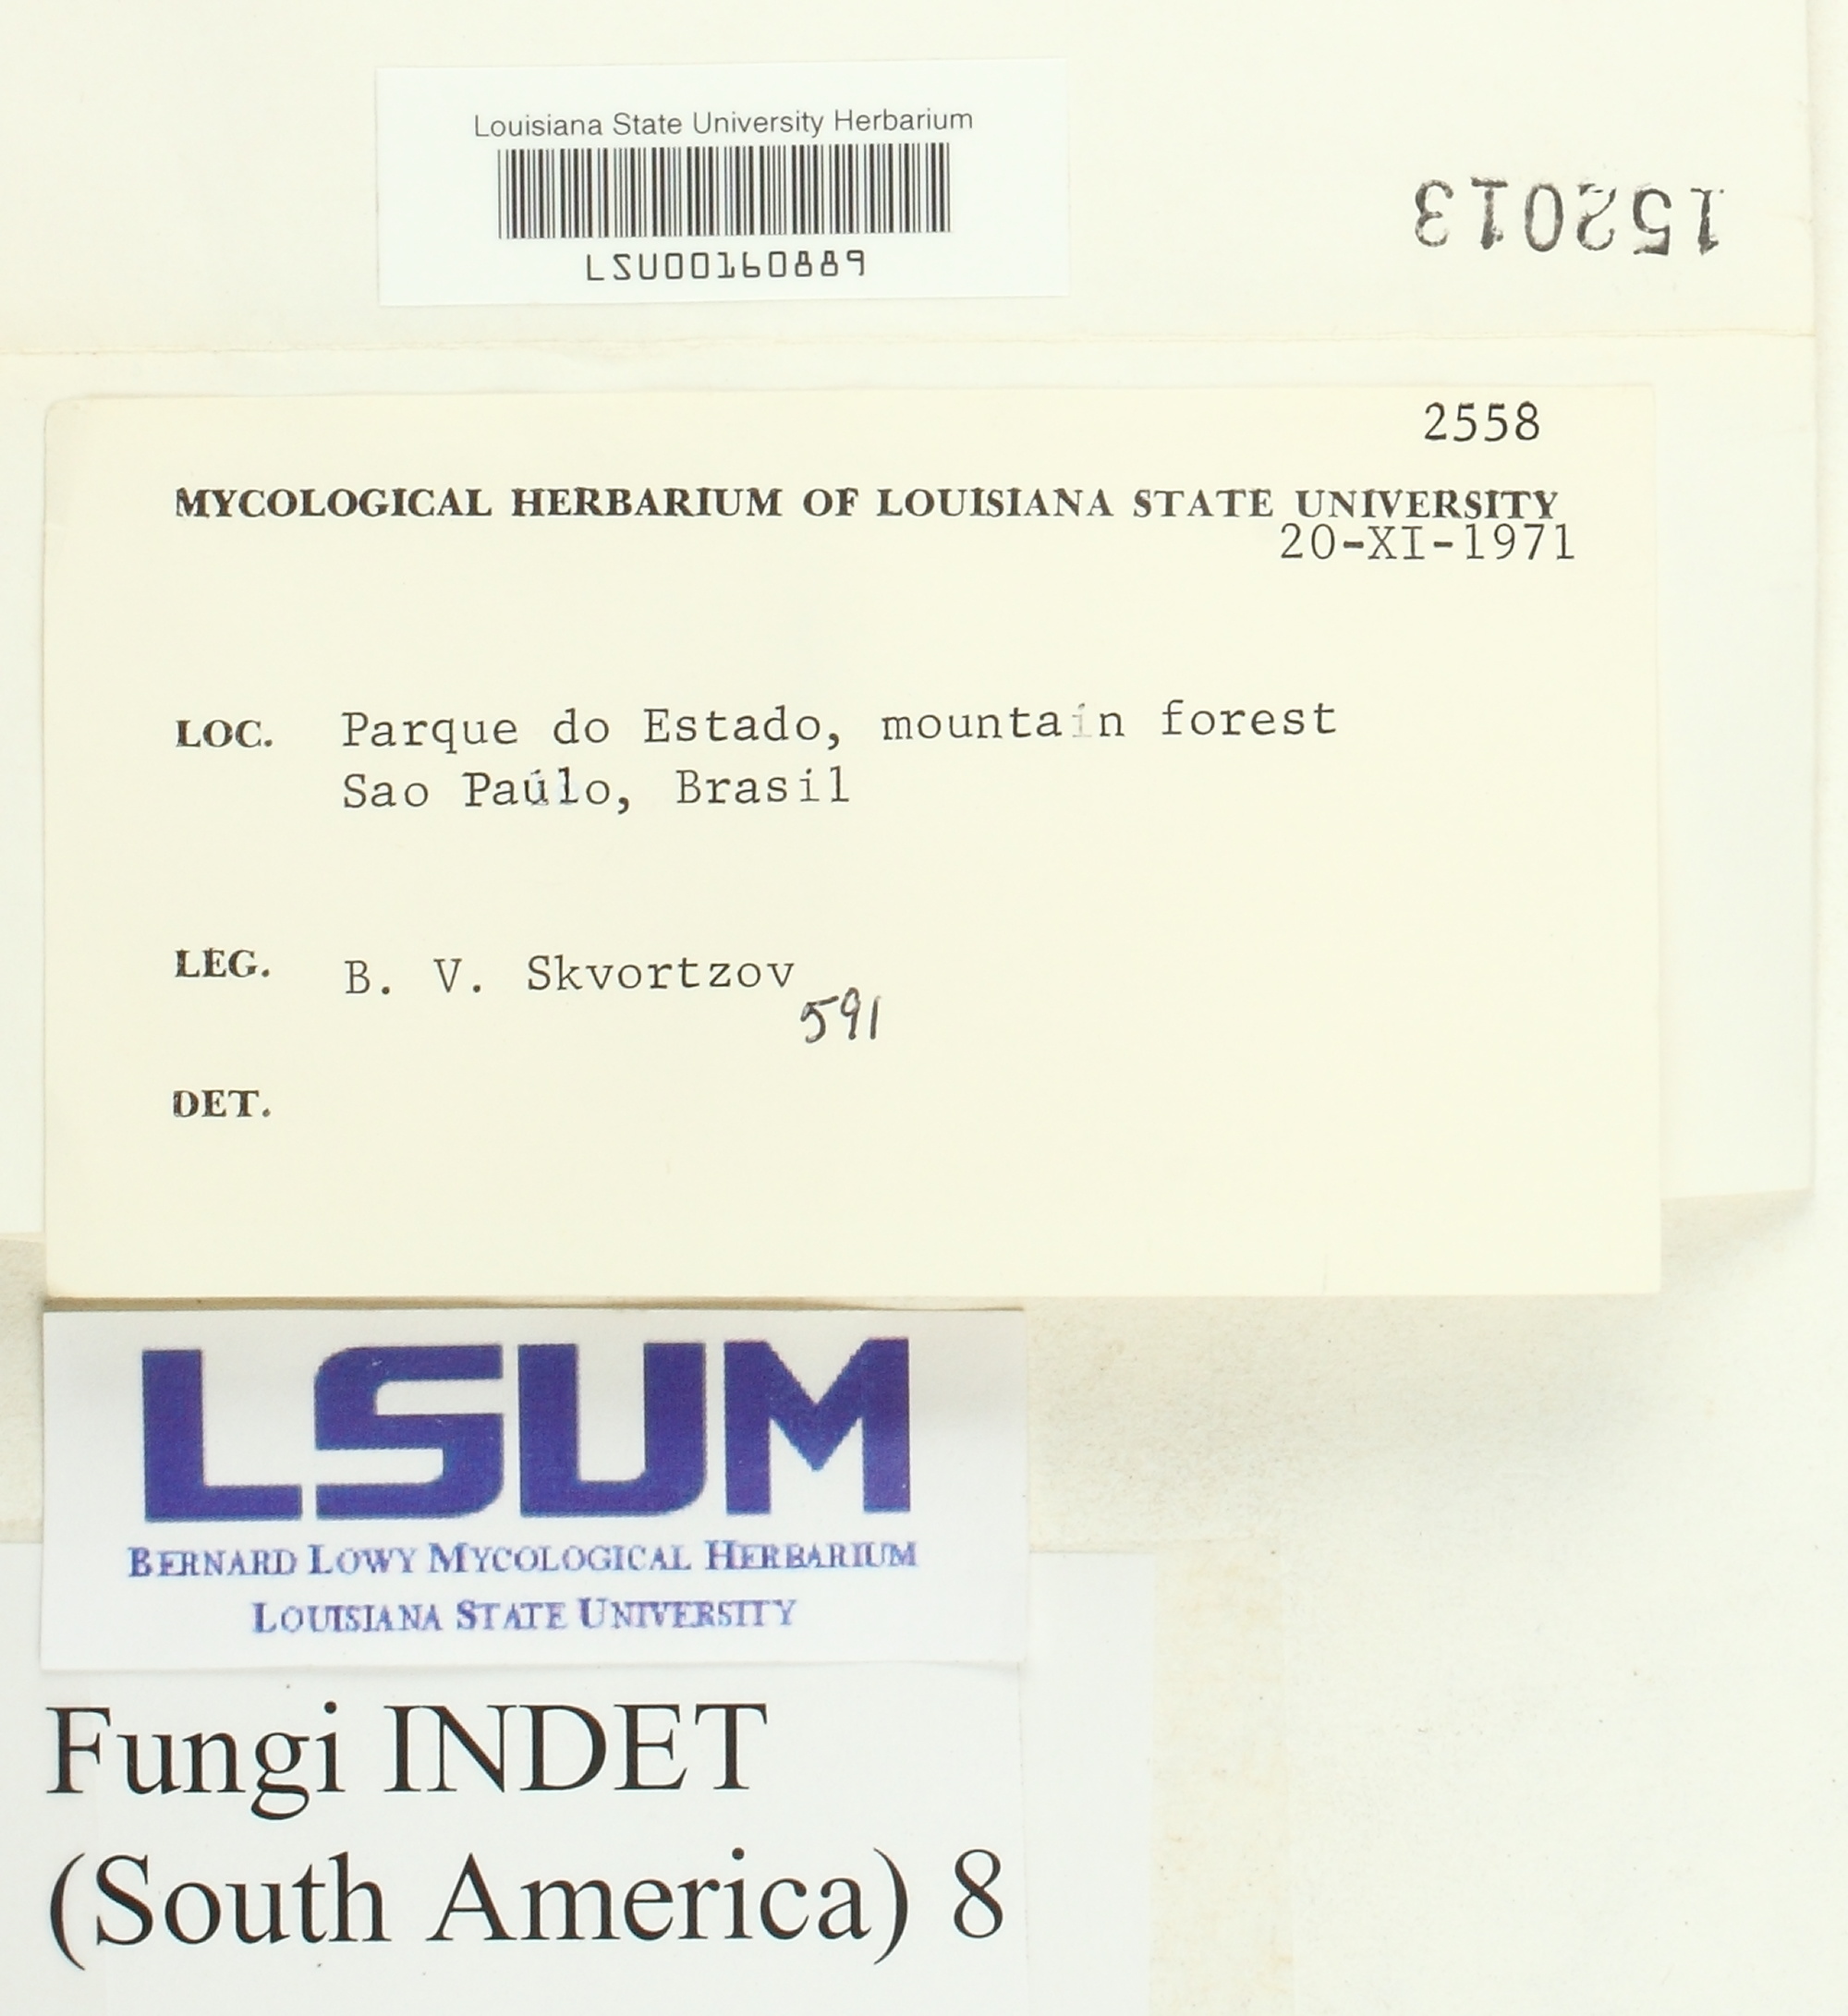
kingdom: Fungi
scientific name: Fungi
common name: Fungi
